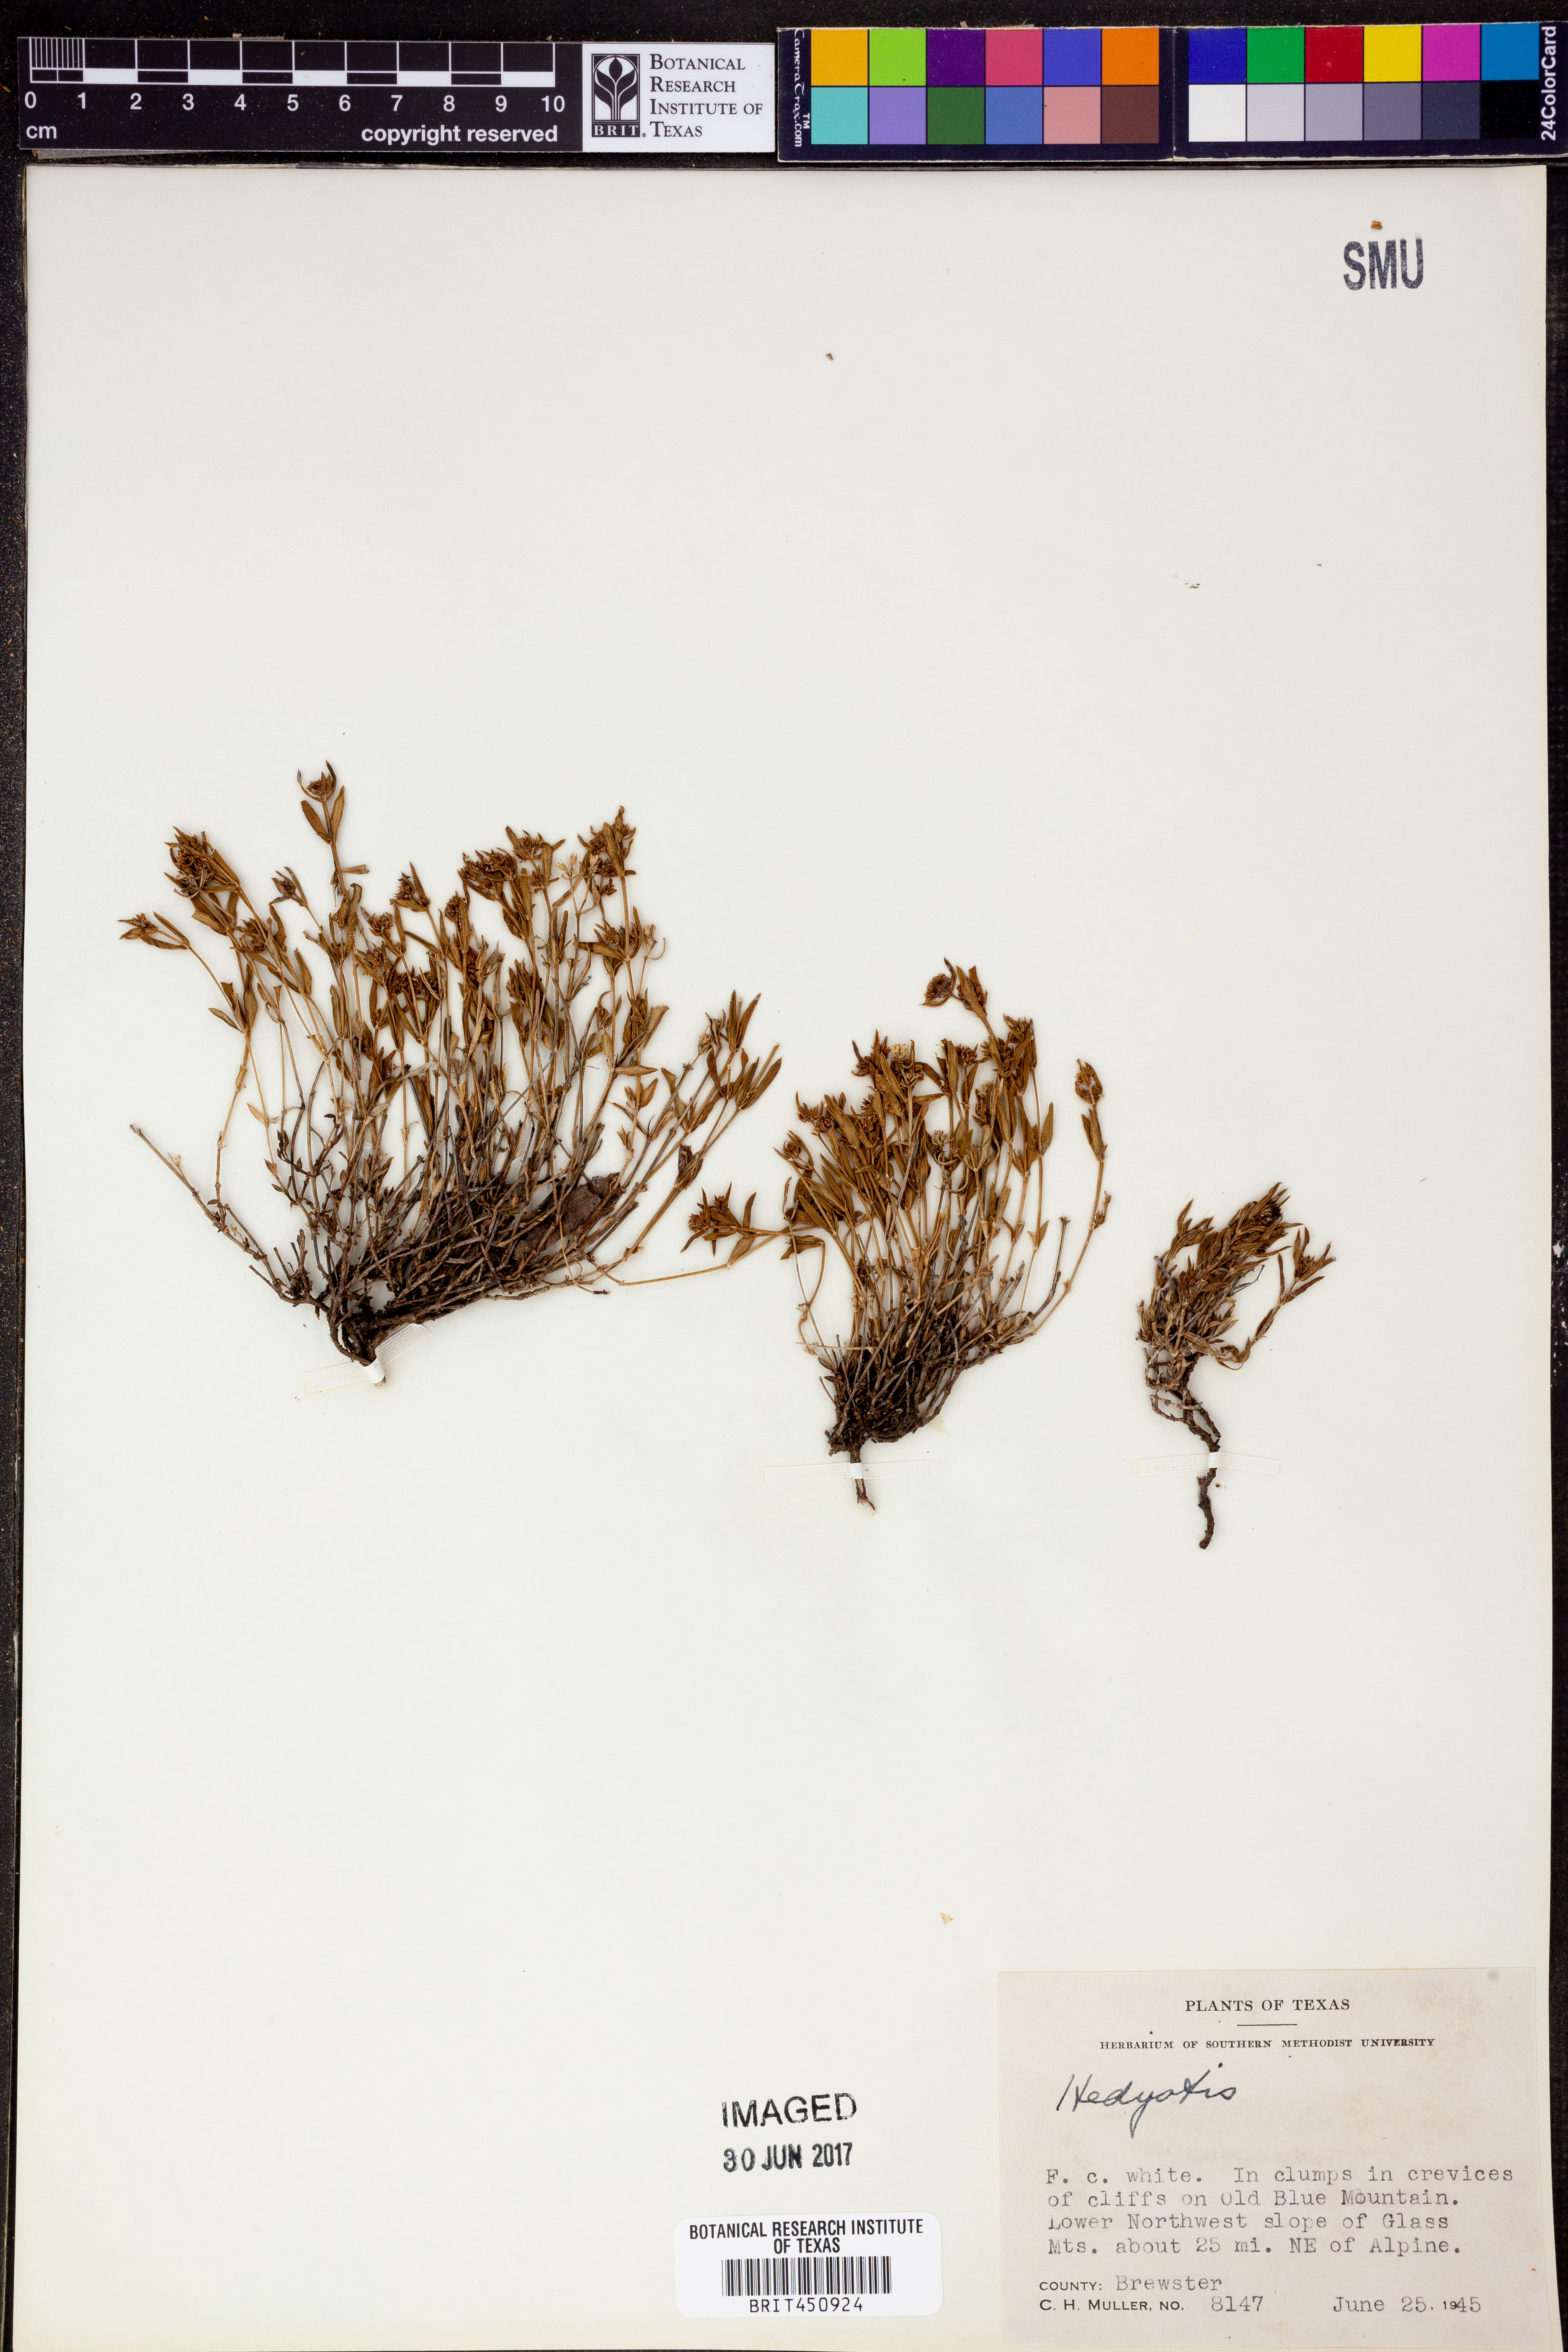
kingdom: Plantae
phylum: Tracheophyta
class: Magnoliopsida
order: Gentianales
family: Rubiaceae
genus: Hedyotis
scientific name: Hedyotis
